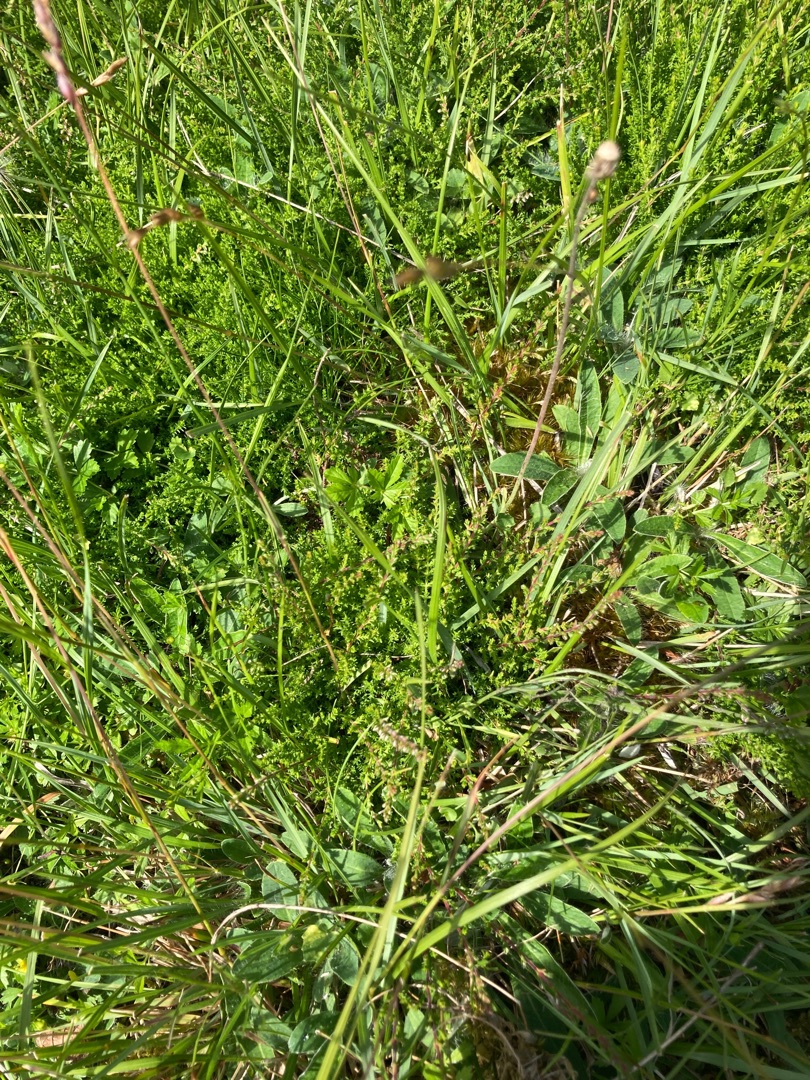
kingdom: Plantae
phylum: Tracheophyta
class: Magnoliopsida
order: Ericales
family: Ericaceae
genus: Calluna
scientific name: Calluna vulgaris
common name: Hedelyng
